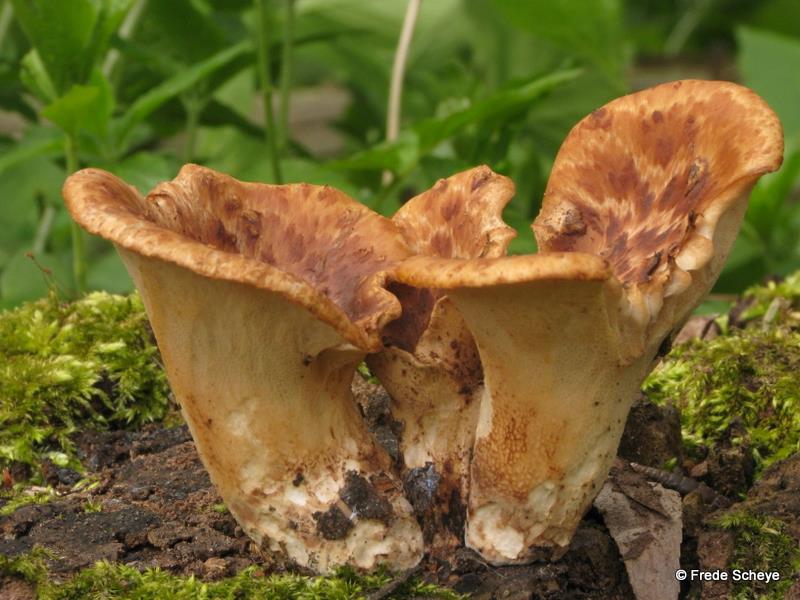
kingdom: Fungi
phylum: Basidiomycota
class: Agaricomycetes
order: Polyporales
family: Polyporaceae
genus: Cerioporus
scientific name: Cerioporus squamosus
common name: skællet stilkporesvamp
